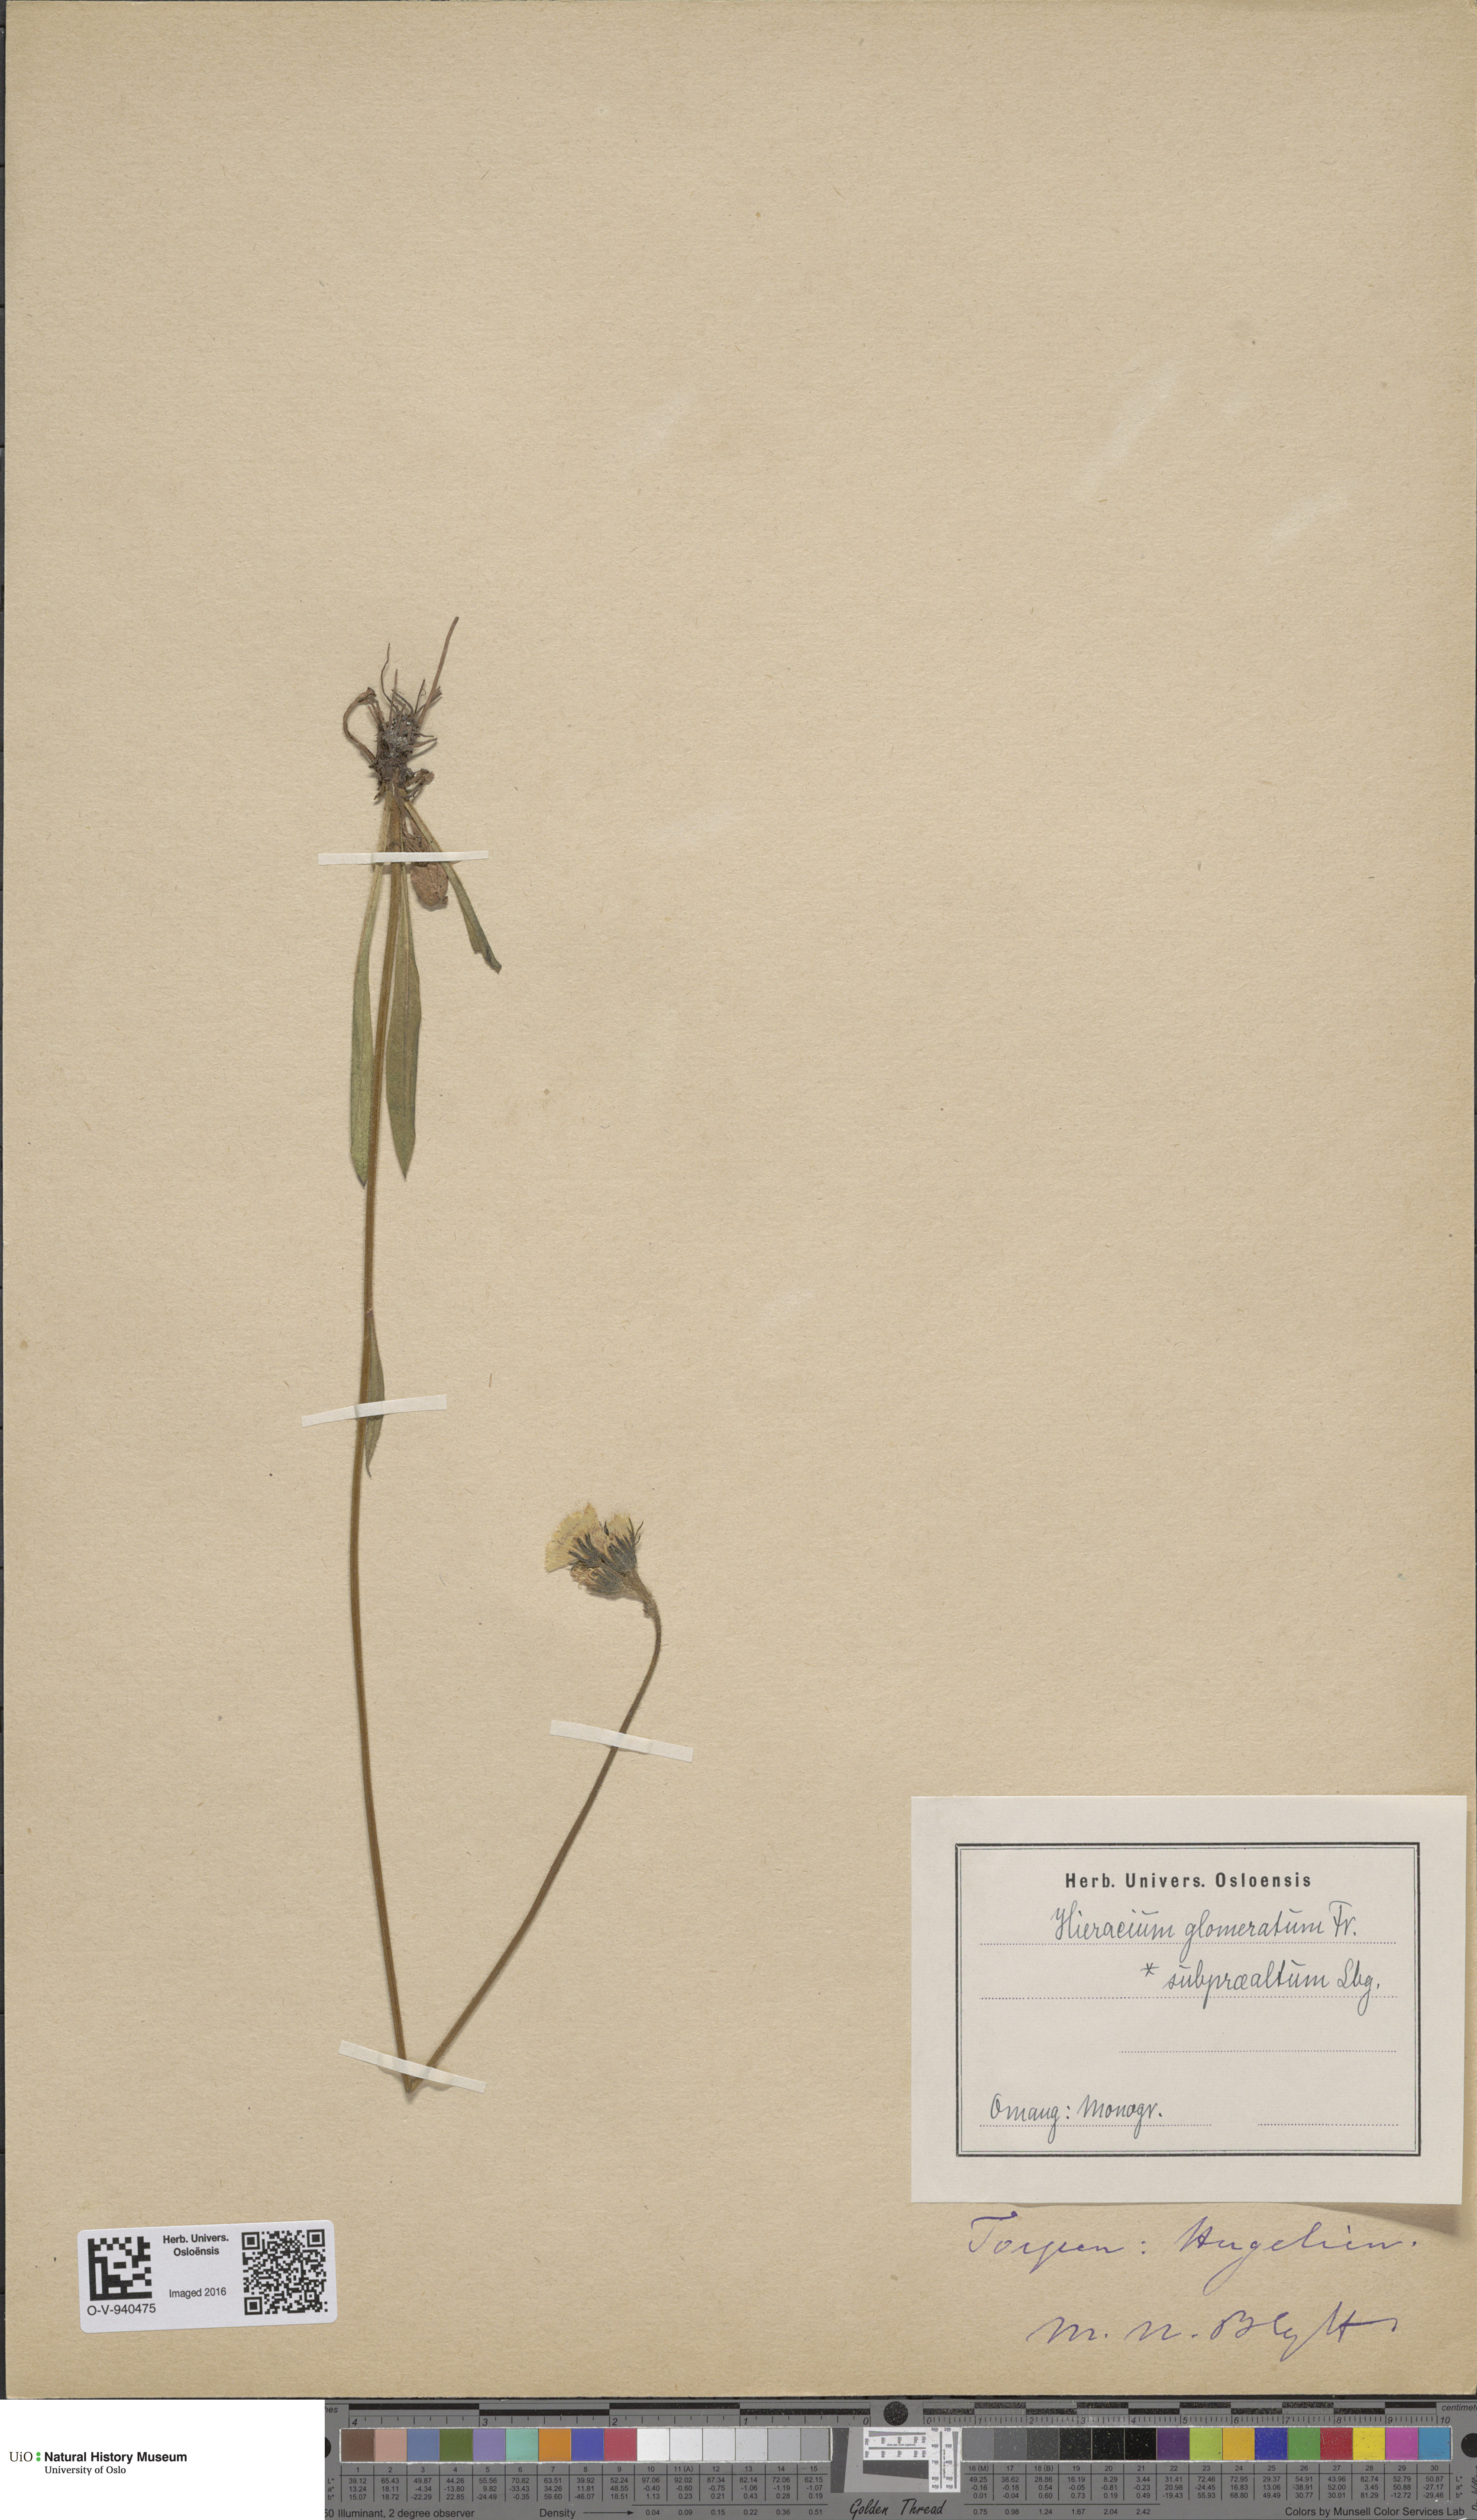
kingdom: Plantae
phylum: Tracheophyta
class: Magnoliopsida
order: Asterales
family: Asteraceae
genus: Pilosella
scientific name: Pilosella glomerata
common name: Queen devil hawkweed
